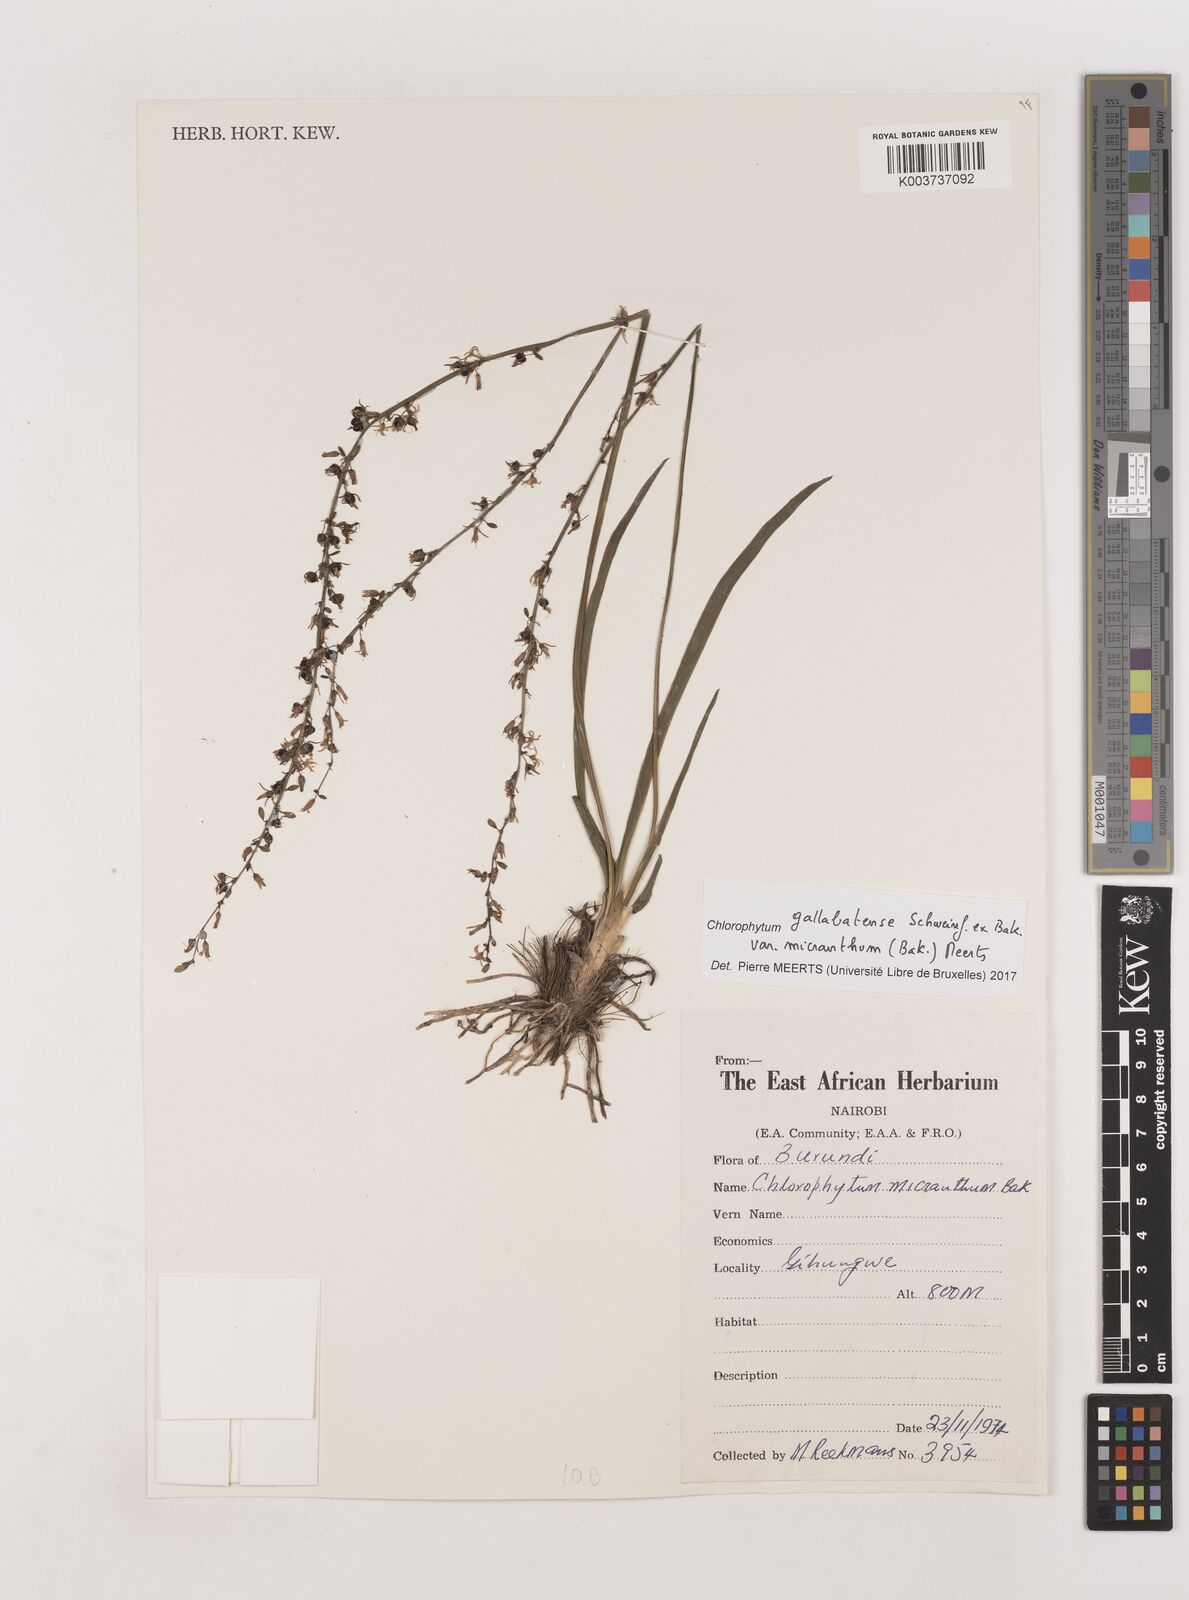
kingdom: Plantae
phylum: Tracheophyta
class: Liliopsida
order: Asparagales
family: Asparagaceae
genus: Chlorophytum
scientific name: Chlorophytum gallabatense
